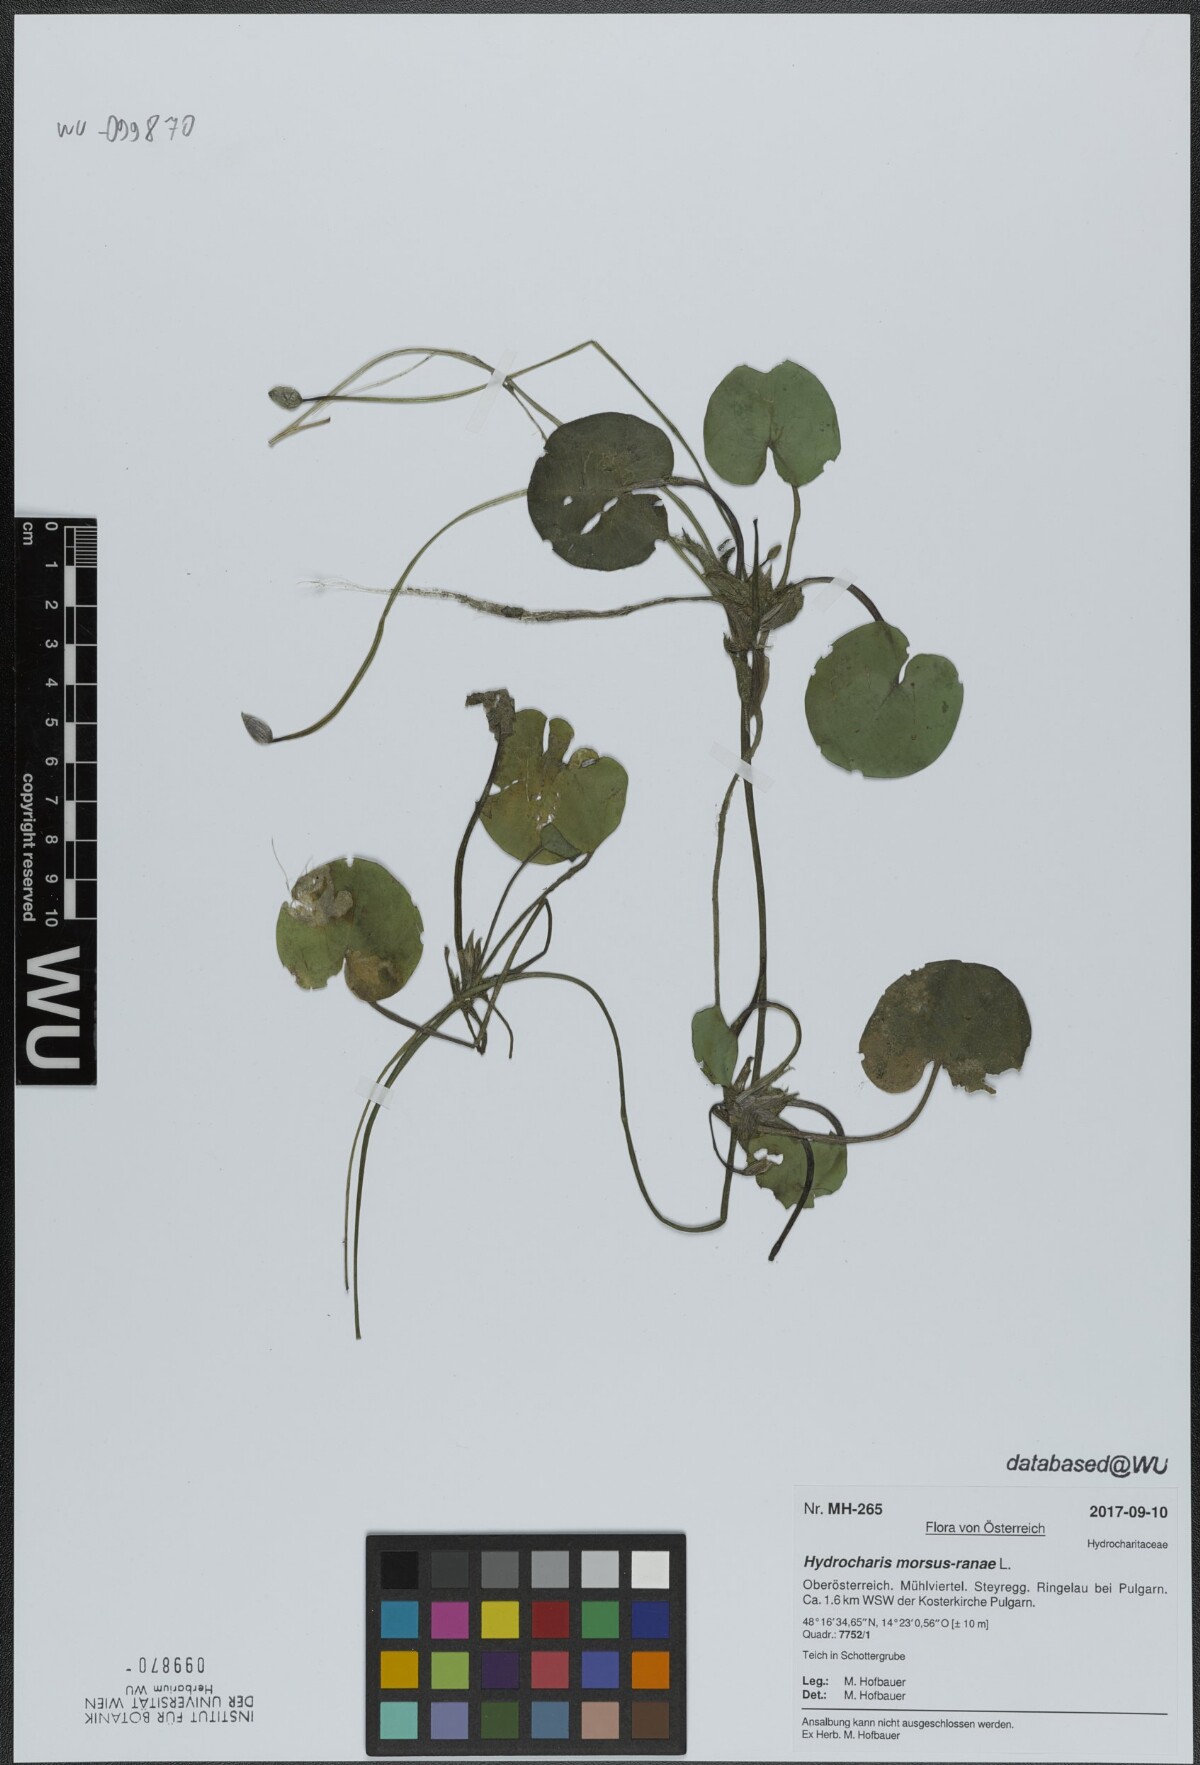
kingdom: Plantae
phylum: Tracheophyta
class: Liliopsida
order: Alismatales
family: Hydrocharitaceae
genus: Hydrocharis
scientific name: Hydrocharis morsus-ranae
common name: Frogbit
